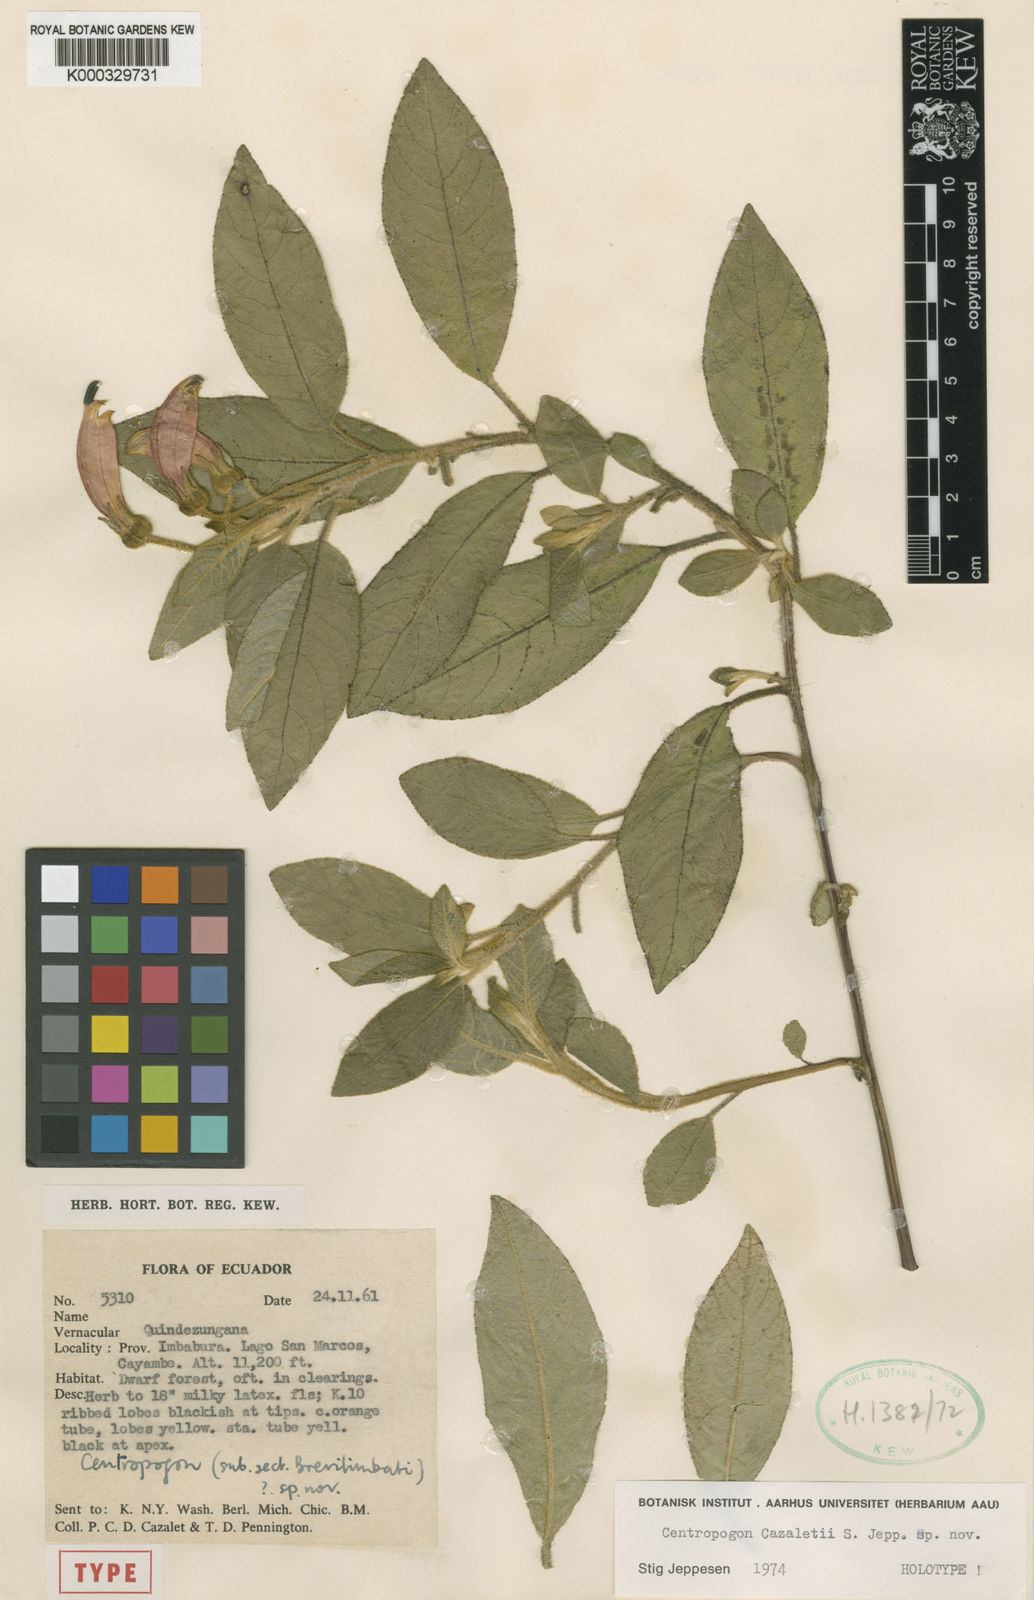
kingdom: Plantae
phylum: Tracheophyta
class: Magnoliopsida
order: Asterales
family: Campanulaceae
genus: Centropogon
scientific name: Centropogon cazaletii
